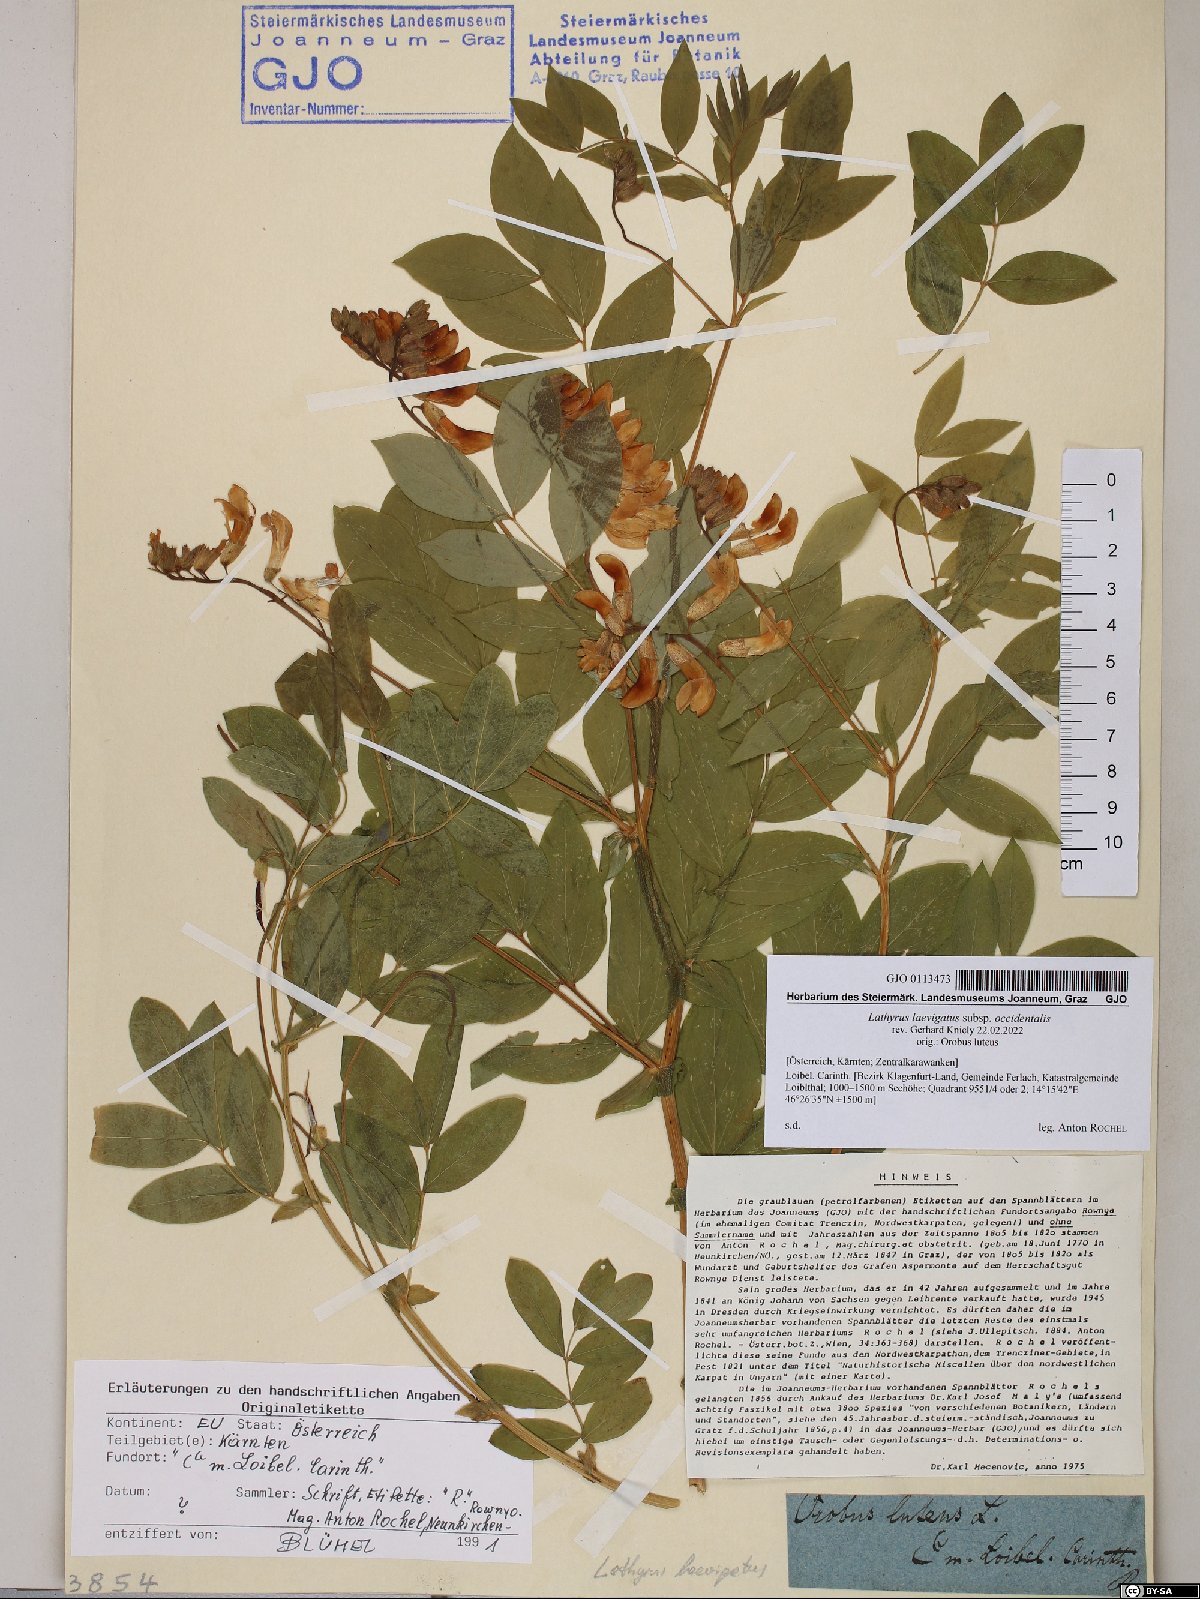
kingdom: Plantae
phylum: Tracheophyta
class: Magnoliopsida
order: Fabales
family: Fabaceae
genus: Lathyrus
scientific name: Lathyrus laevigatus
